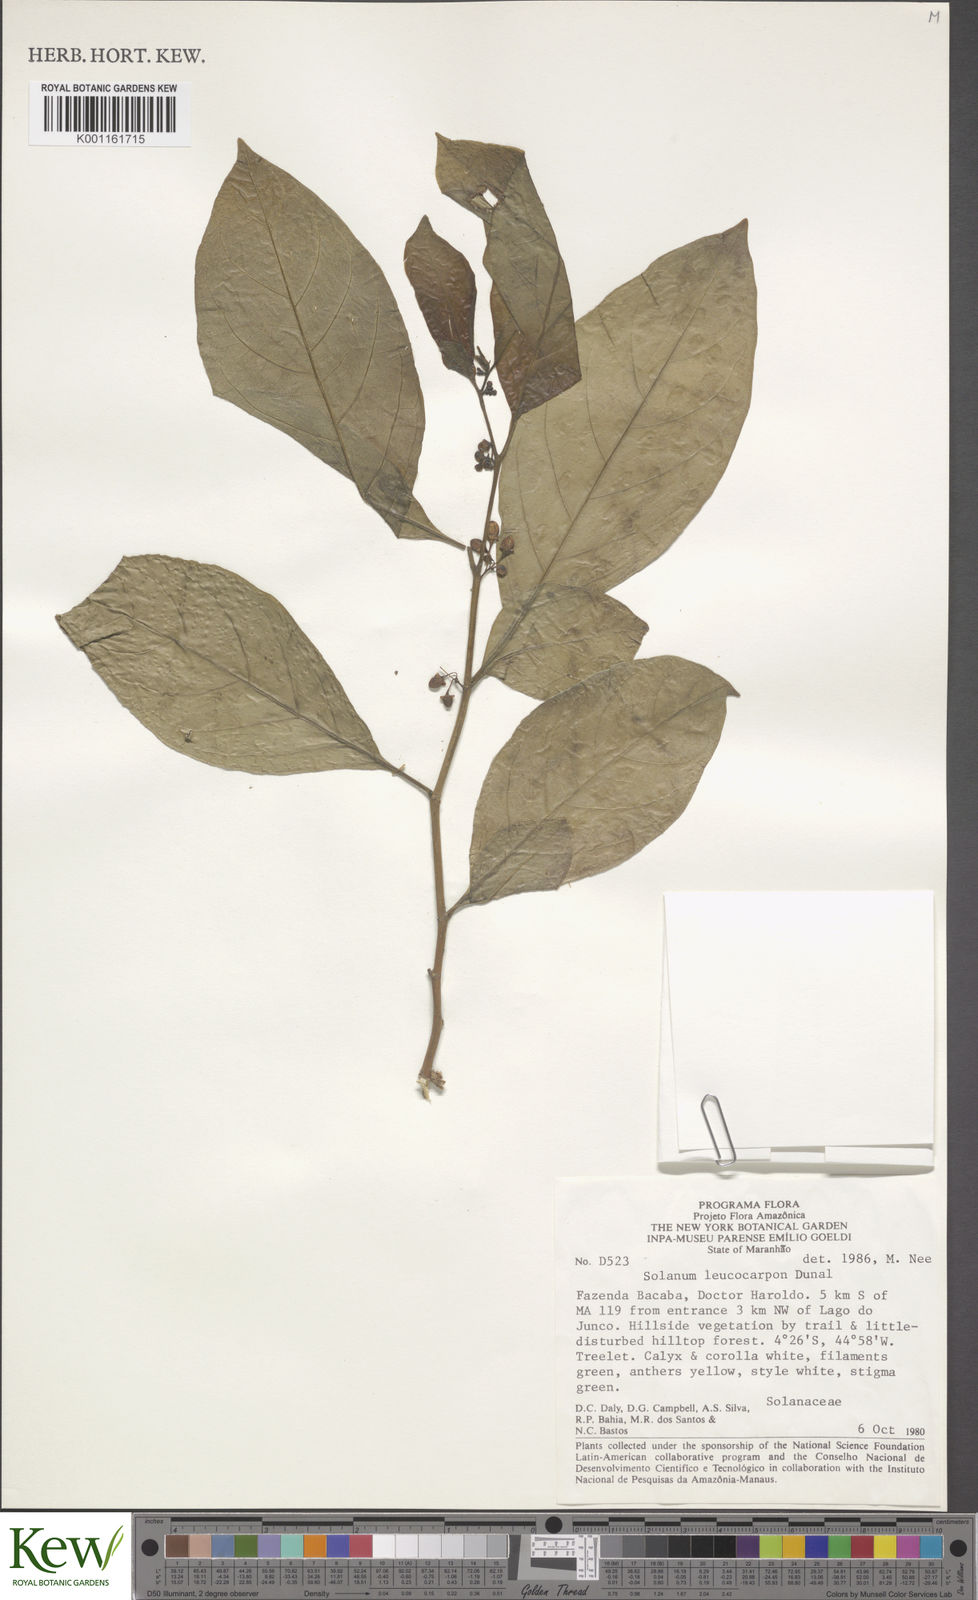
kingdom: Plantae
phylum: Tracheophyta
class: Magnoliopsida
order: Solanales
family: Solanaceae
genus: Solanum
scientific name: Solanum leucocarpon
